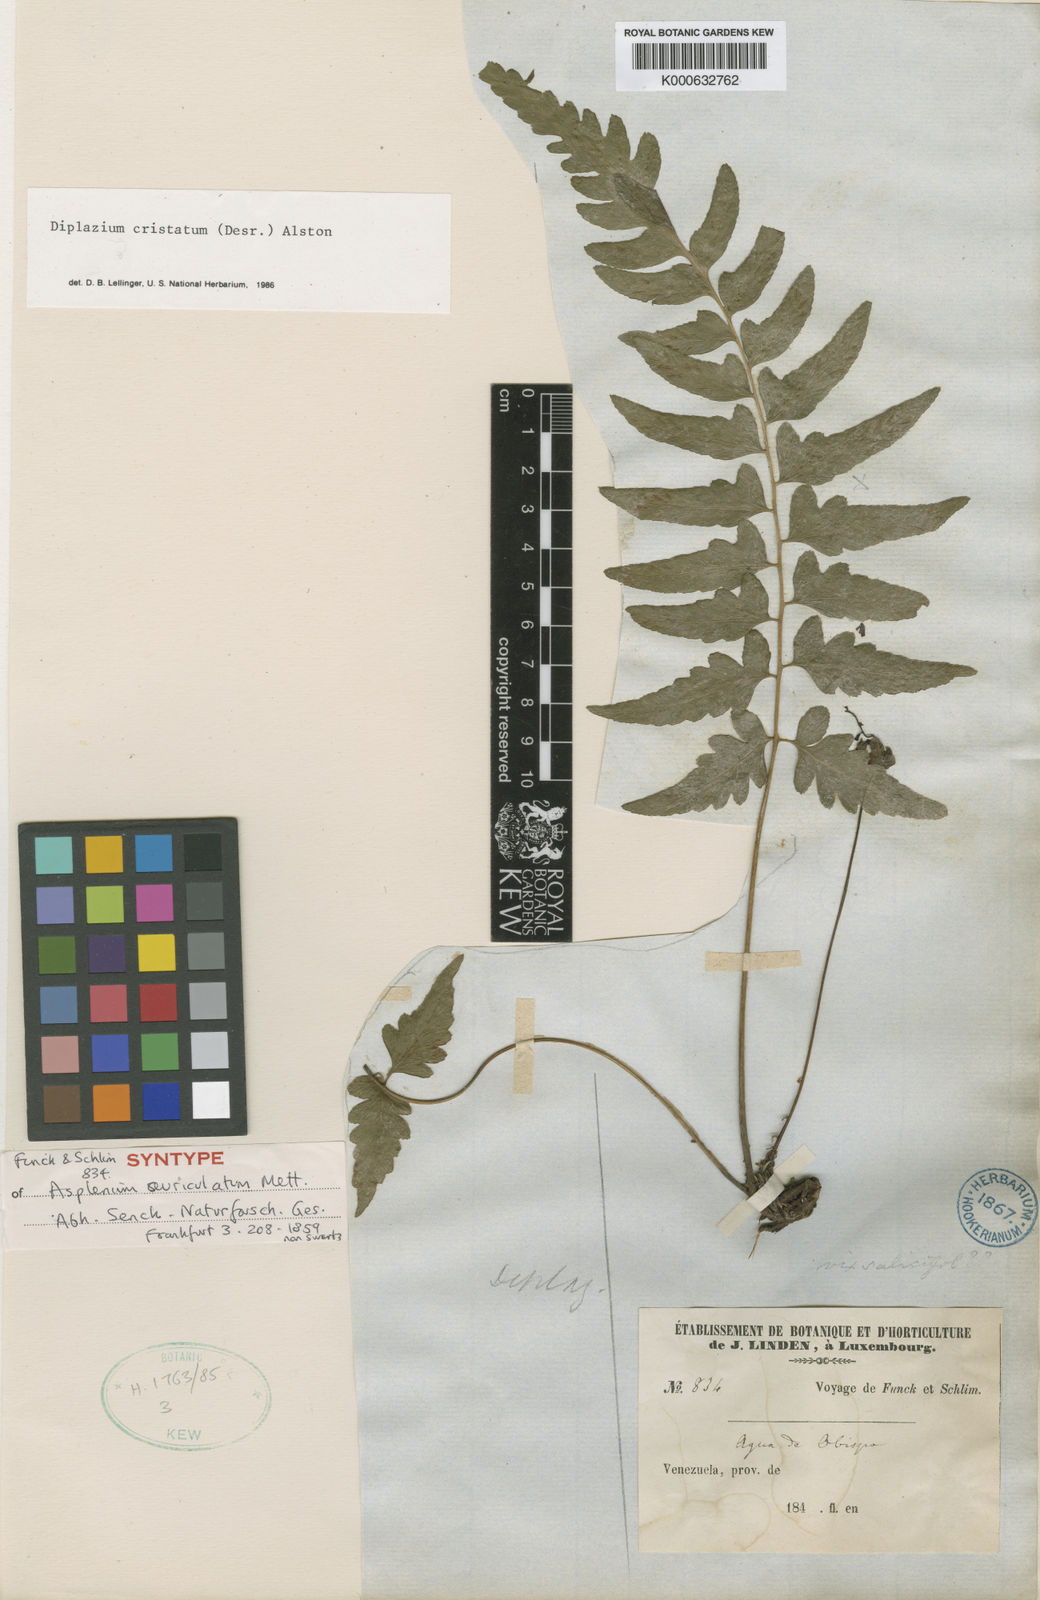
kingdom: Plantae
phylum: Tracheophyta
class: Polypodiopsida
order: Polypodiales
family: Athyriaceae
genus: Diplazium
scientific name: Diplazium cristatum
